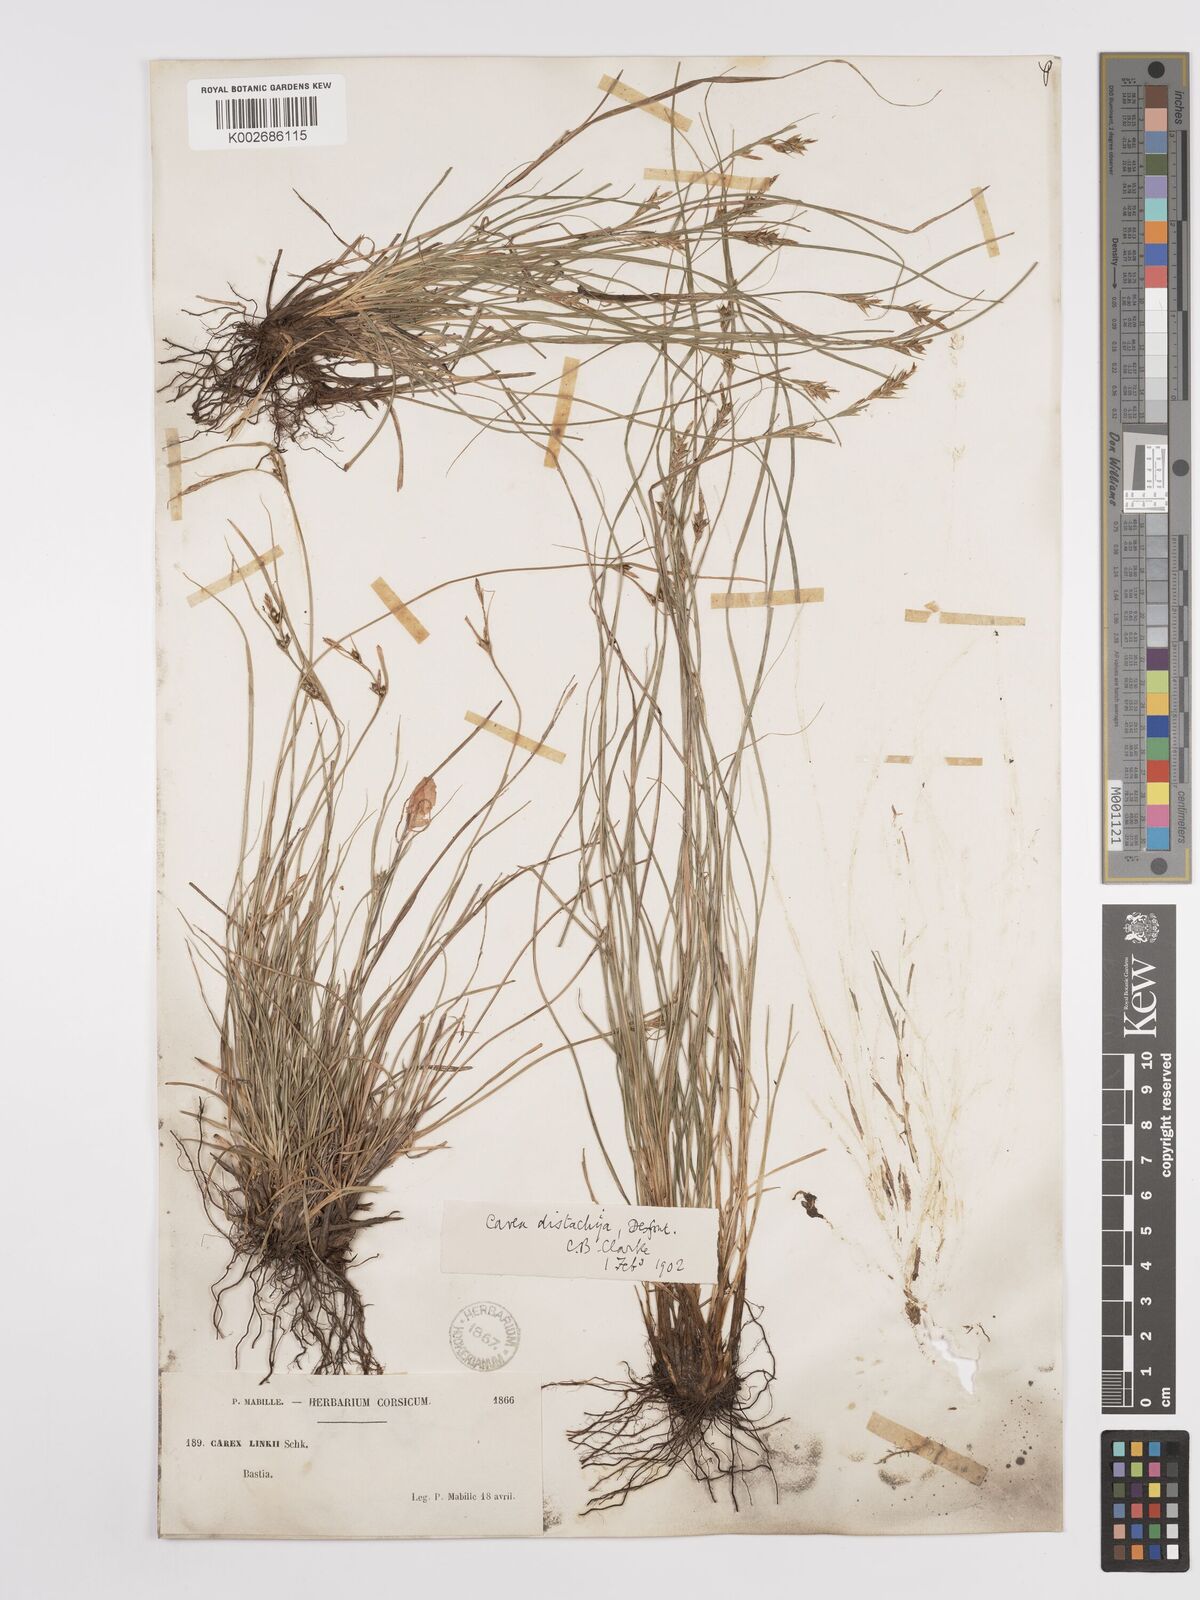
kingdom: Plantae
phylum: Tracheophyta
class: Liliopsida
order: Poales
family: Cyperaceae
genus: Carex
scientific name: Carex distachya
